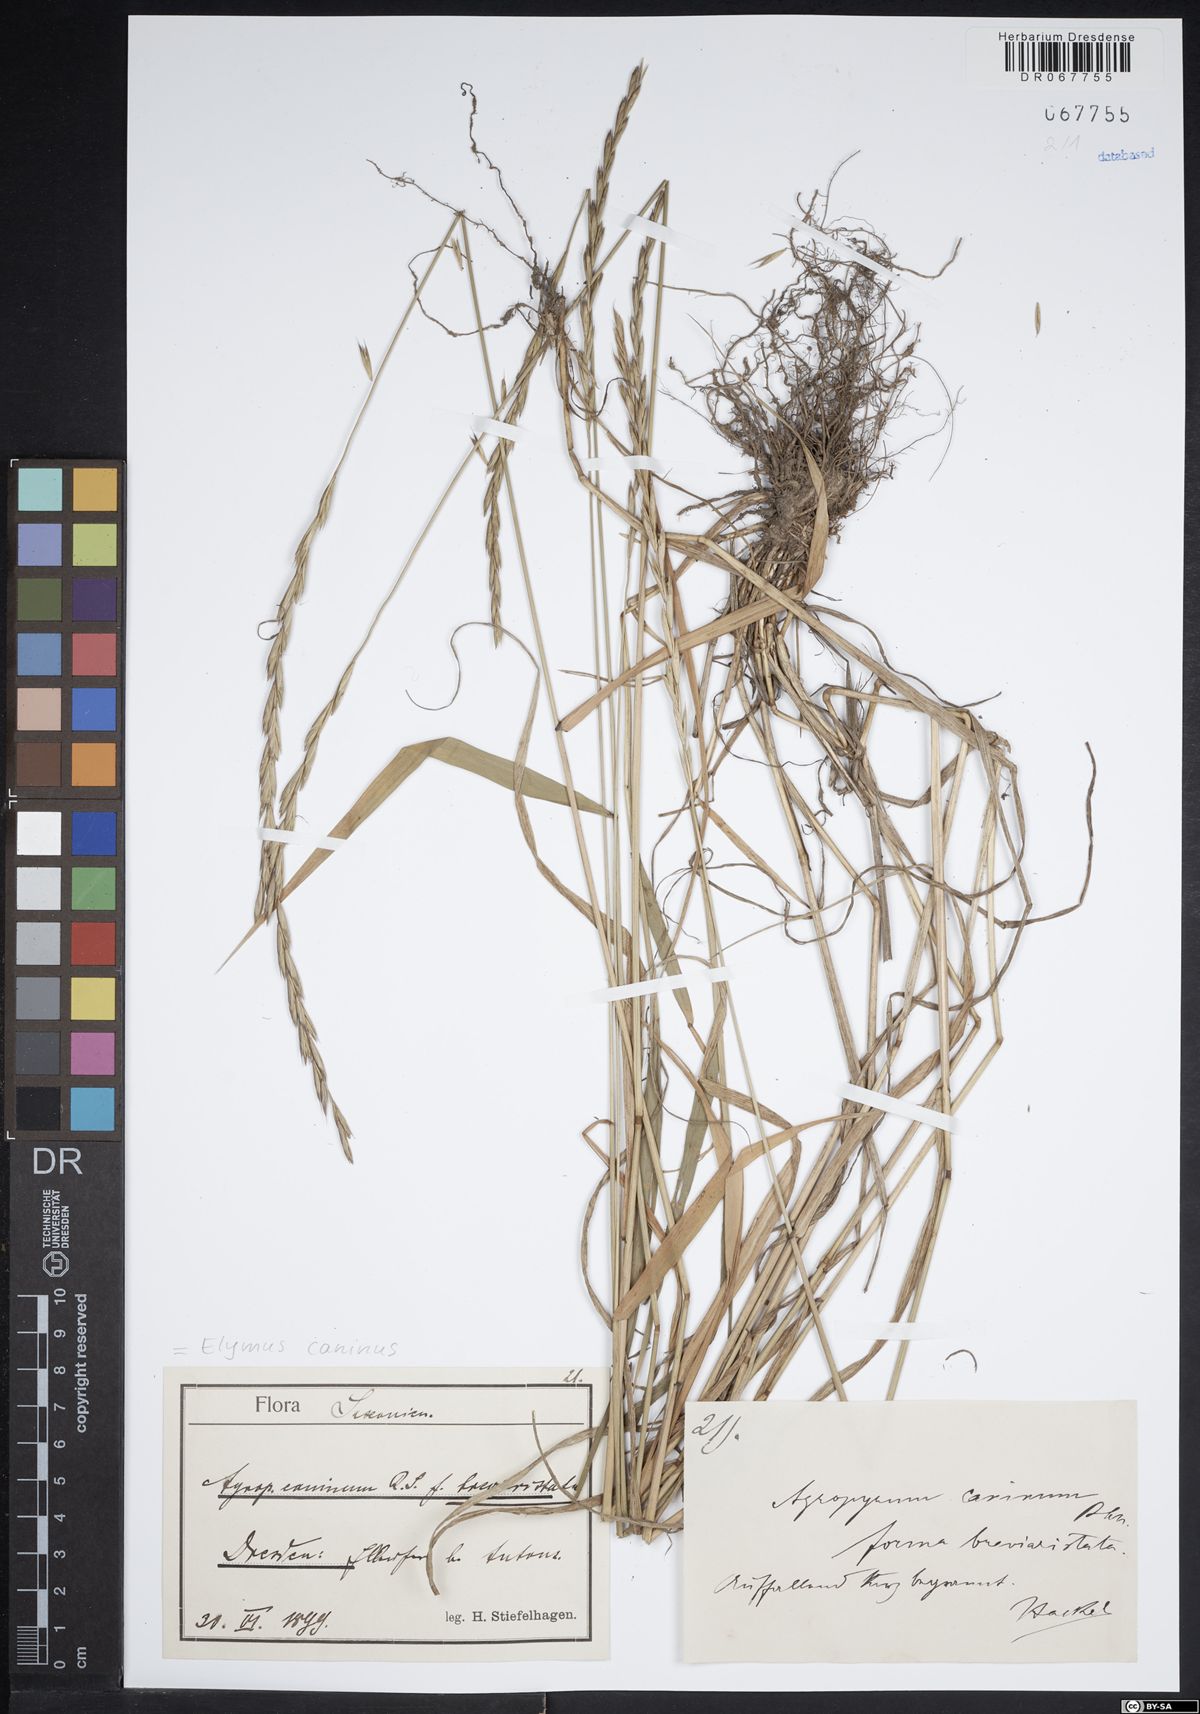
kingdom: Plantae
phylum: Tracheophyta
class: Liliopsida
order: Poales
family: Poaceae
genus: Elymus
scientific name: Elymus caninus
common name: Bearded couch
